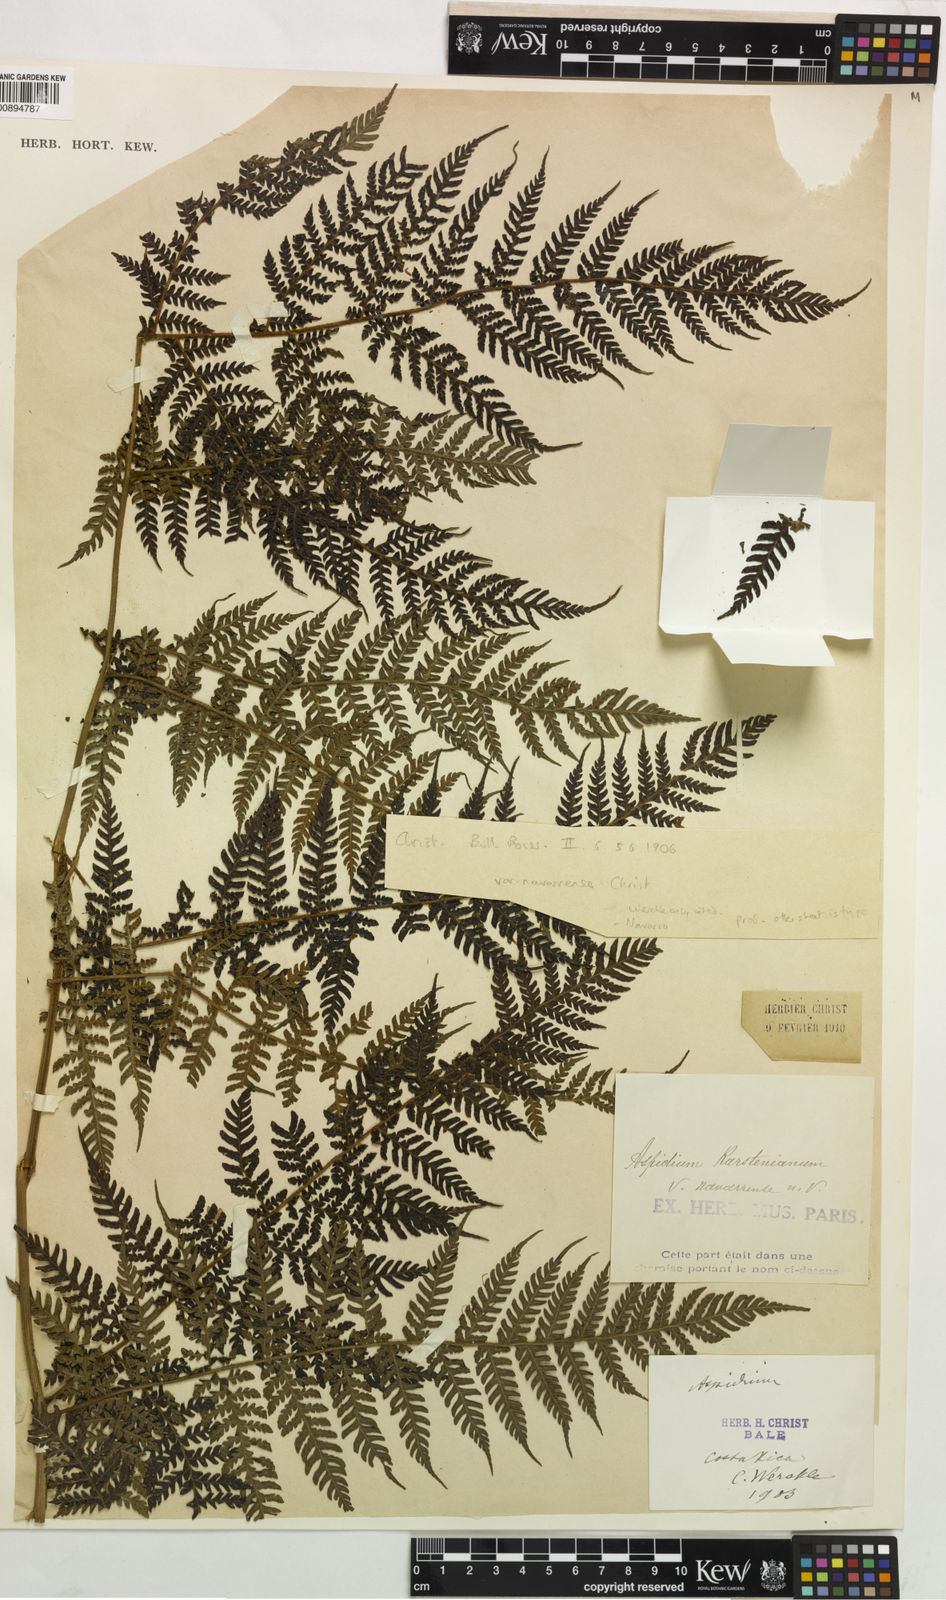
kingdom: Plantae
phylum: Tracheophyta
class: Polypodiopsida
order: Polypodiales
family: Dryopteridaceae
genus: Megalastrum
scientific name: Megalastrum atrogriseum
